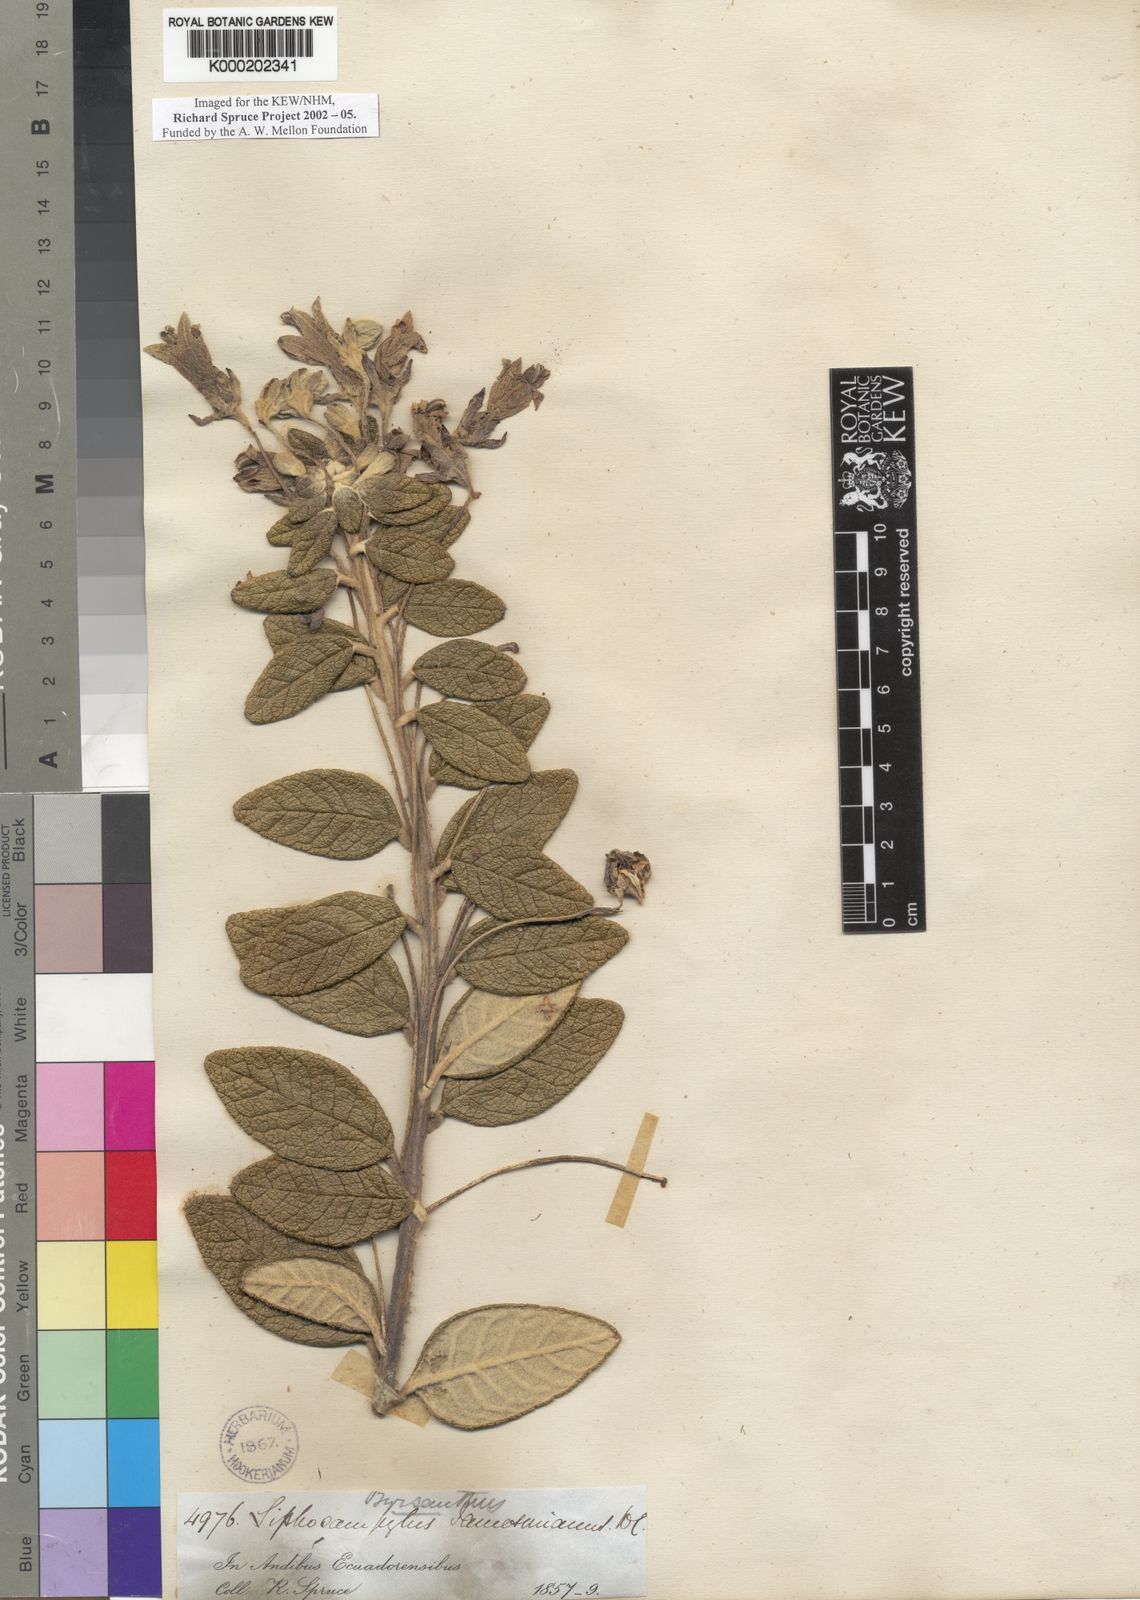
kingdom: Plantae
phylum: Tracheophyta
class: Magnoliopsida
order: Asterales
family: Campanulaceae
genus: Siphocampylus
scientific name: Siphocampylus affinis
